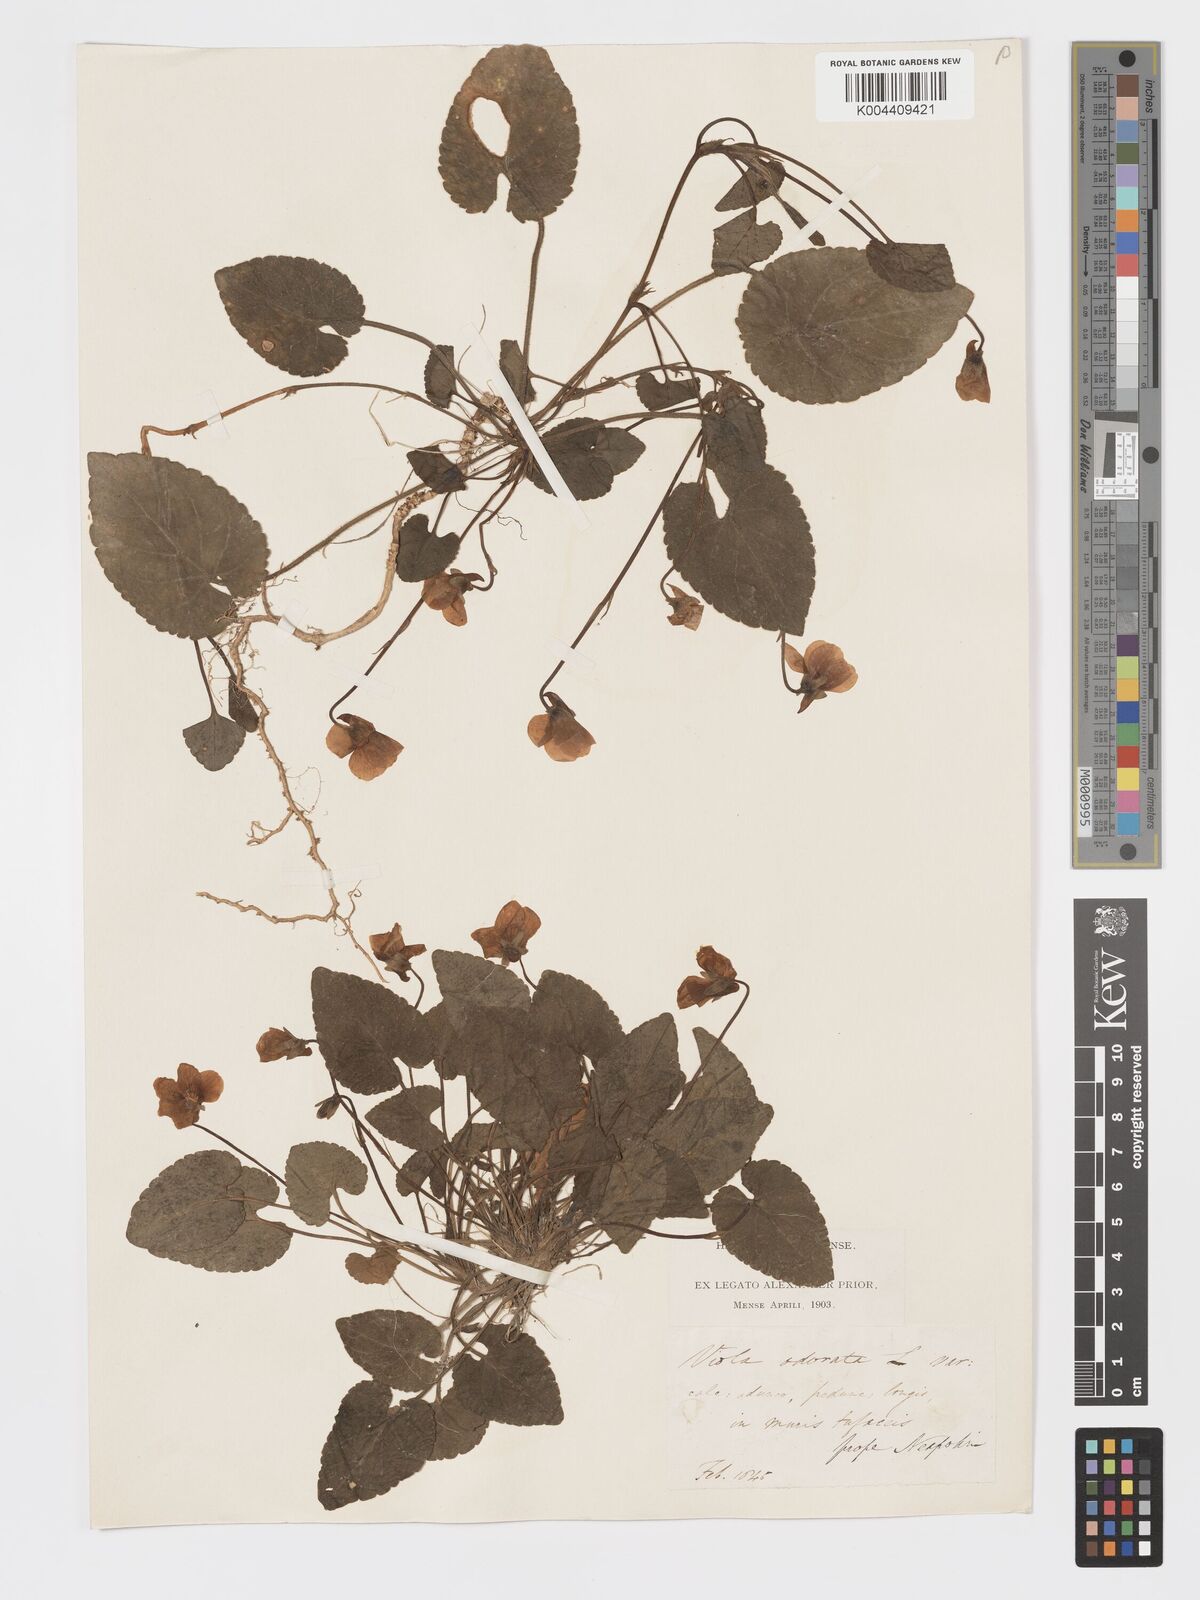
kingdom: Plantae
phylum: Tracheophyta
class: Magnoliopsida
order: Malpighiales
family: Violaceae
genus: Viola
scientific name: Viola alba
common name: White violet
